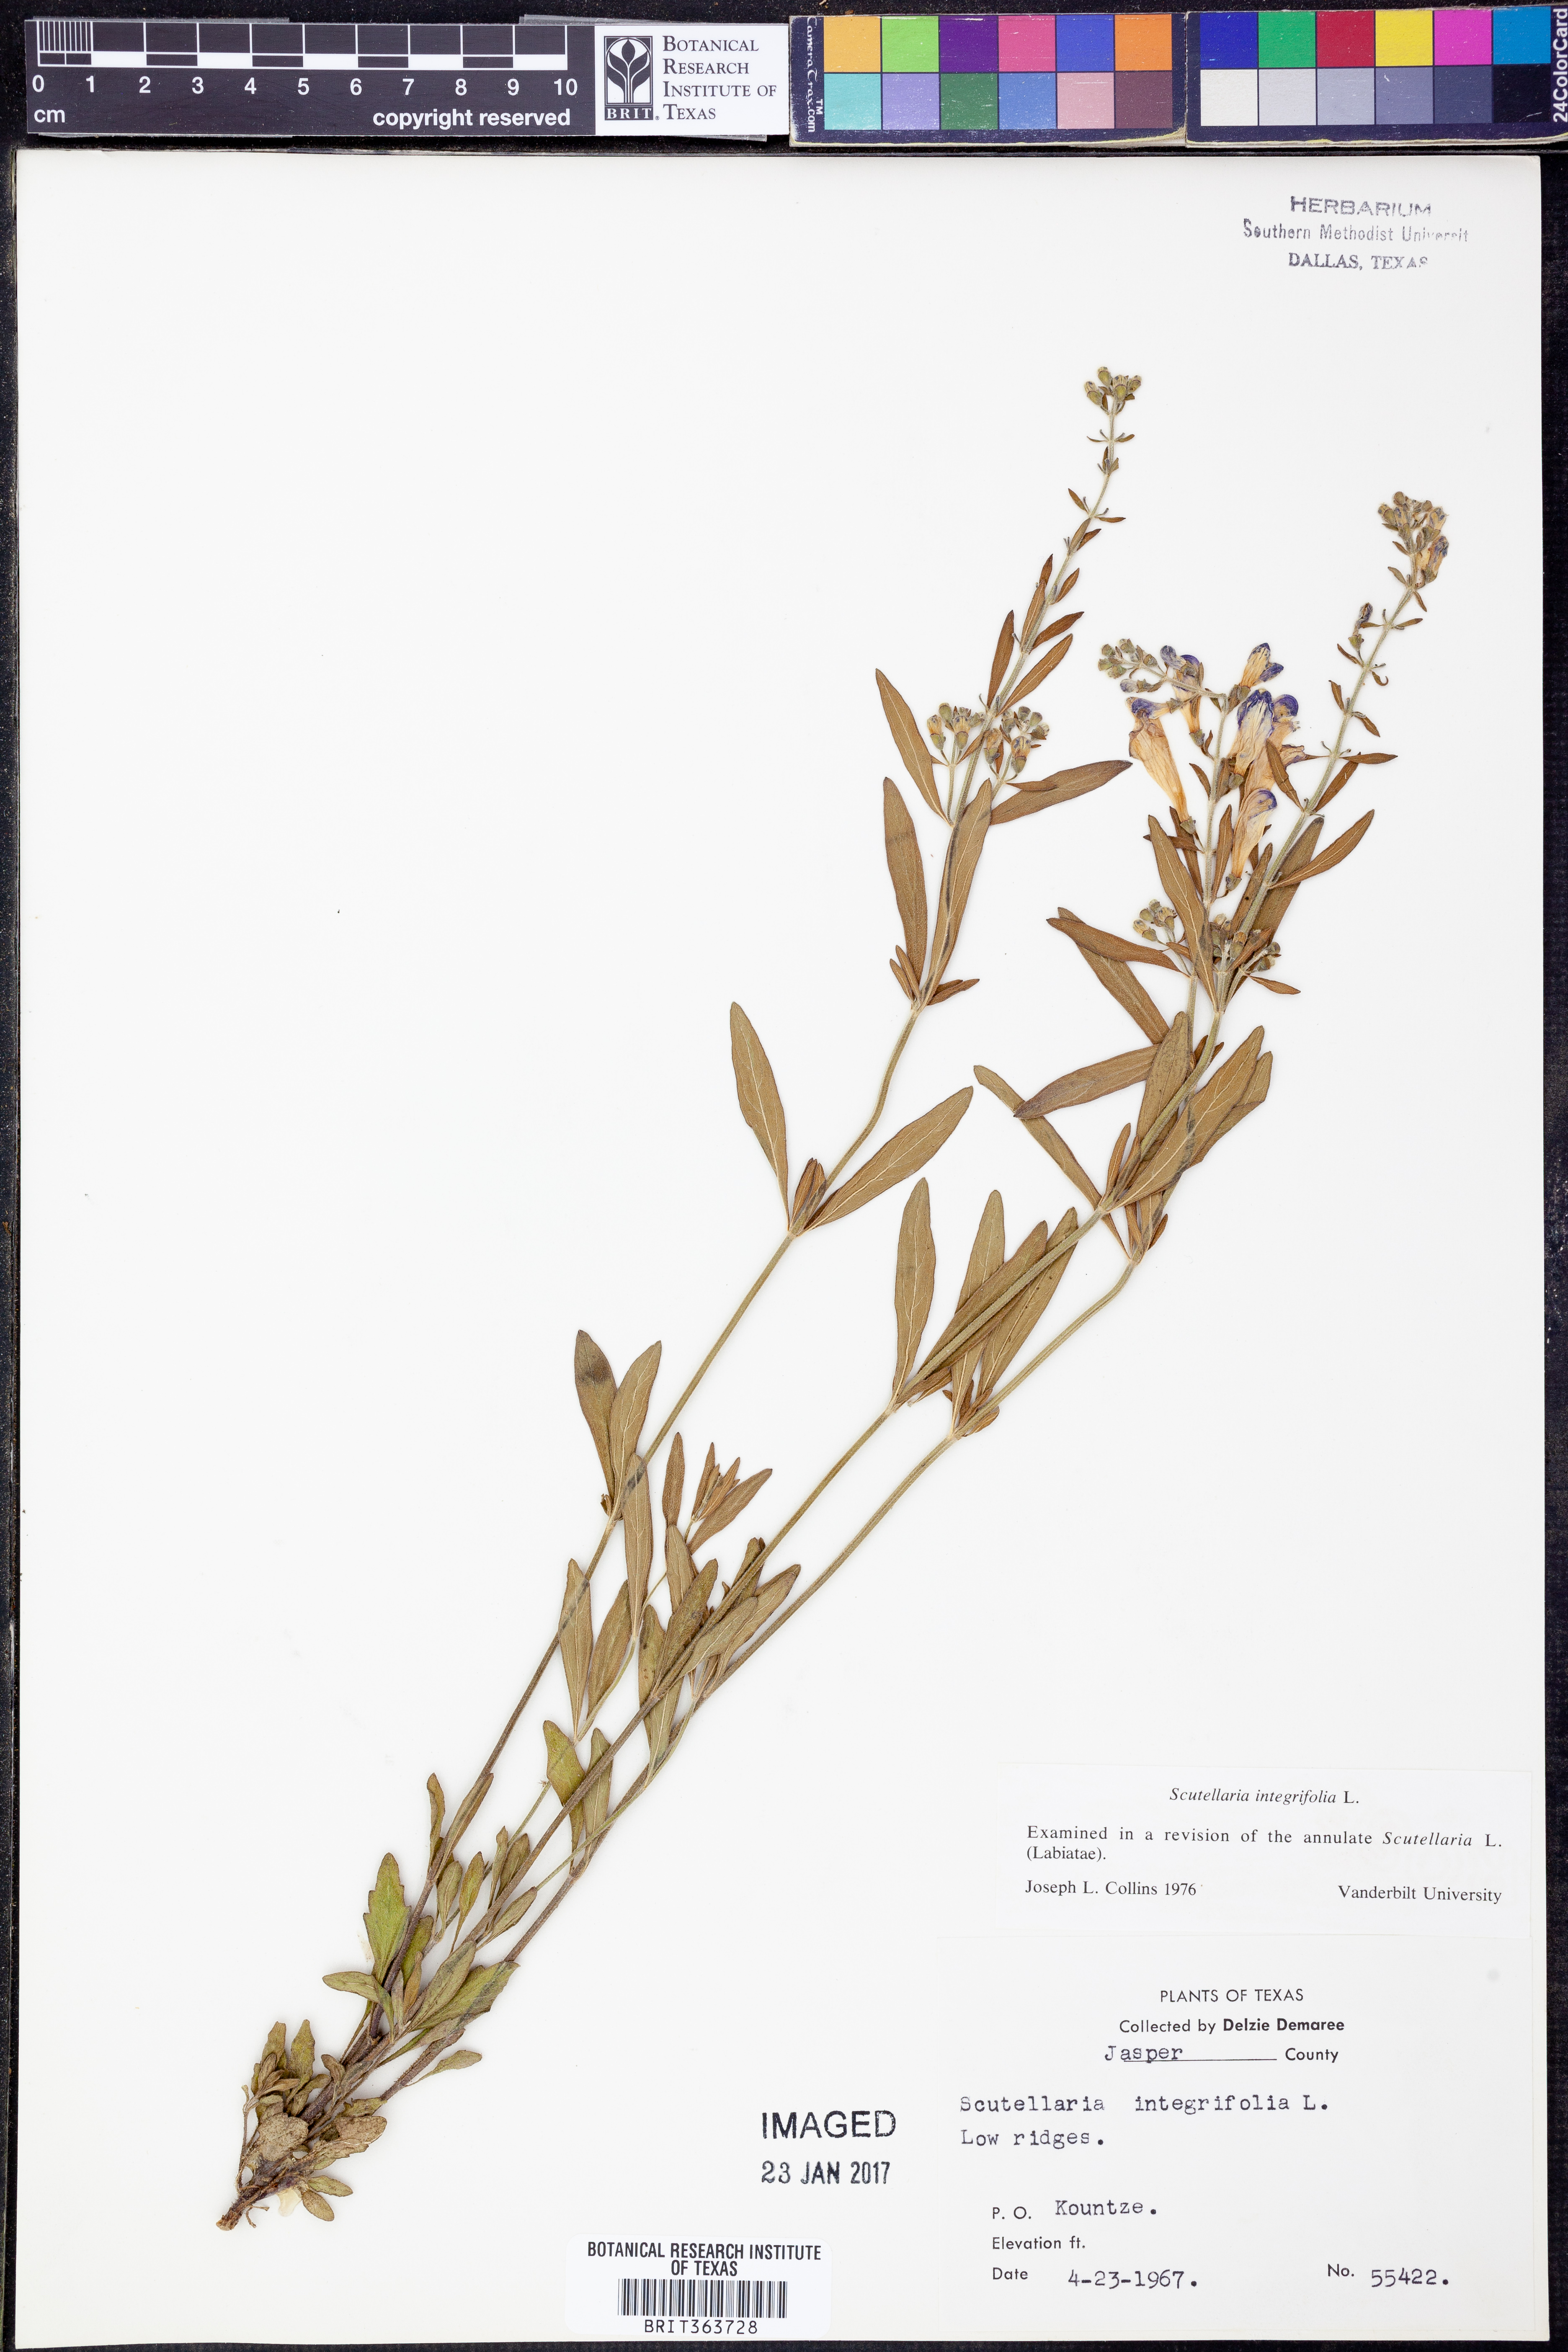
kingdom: Plantae
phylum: Tracheophyta
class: Magnoliopsida
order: Lamiales
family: Lamiaceae
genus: Scutellaria
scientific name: Scutellaria integrifolia
